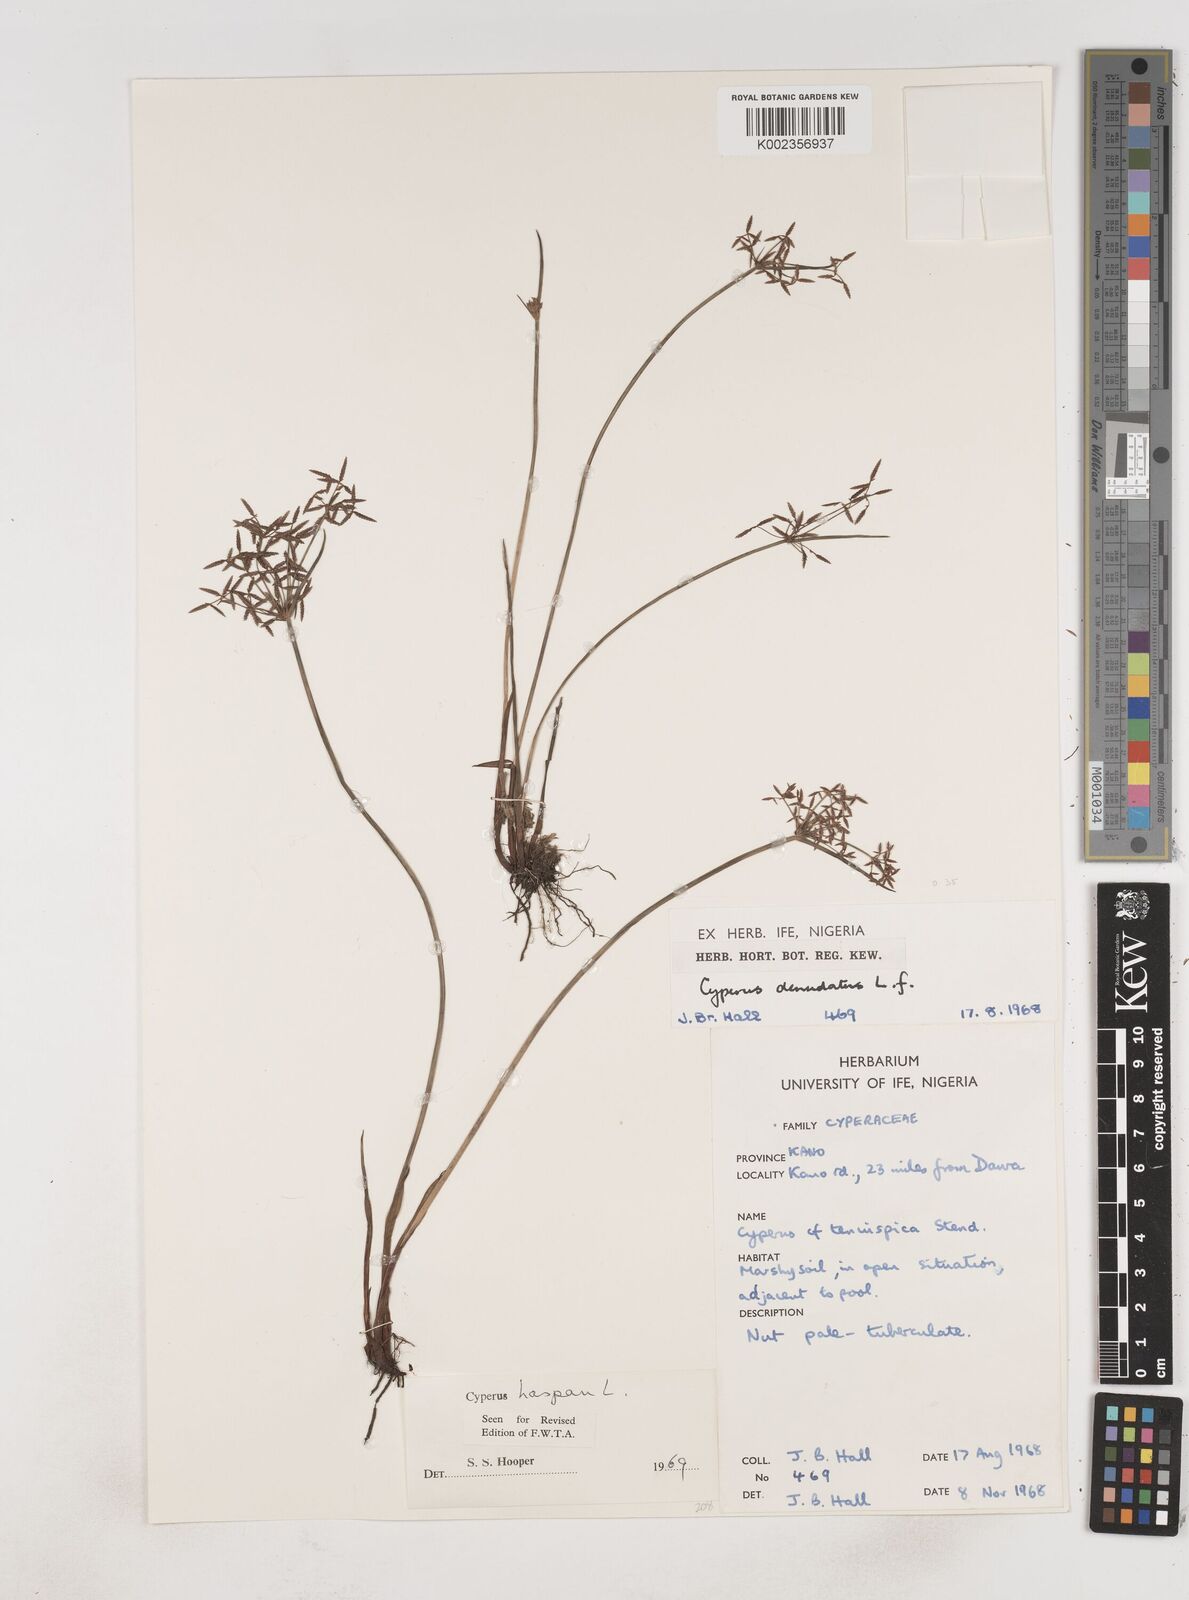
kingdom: Plantae
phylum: Tracheophyta
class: Liliopsida
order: Poales
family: Cyperaceae
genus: Cyperus
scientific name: Cyperus haspan
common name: Haspan flatsedge
